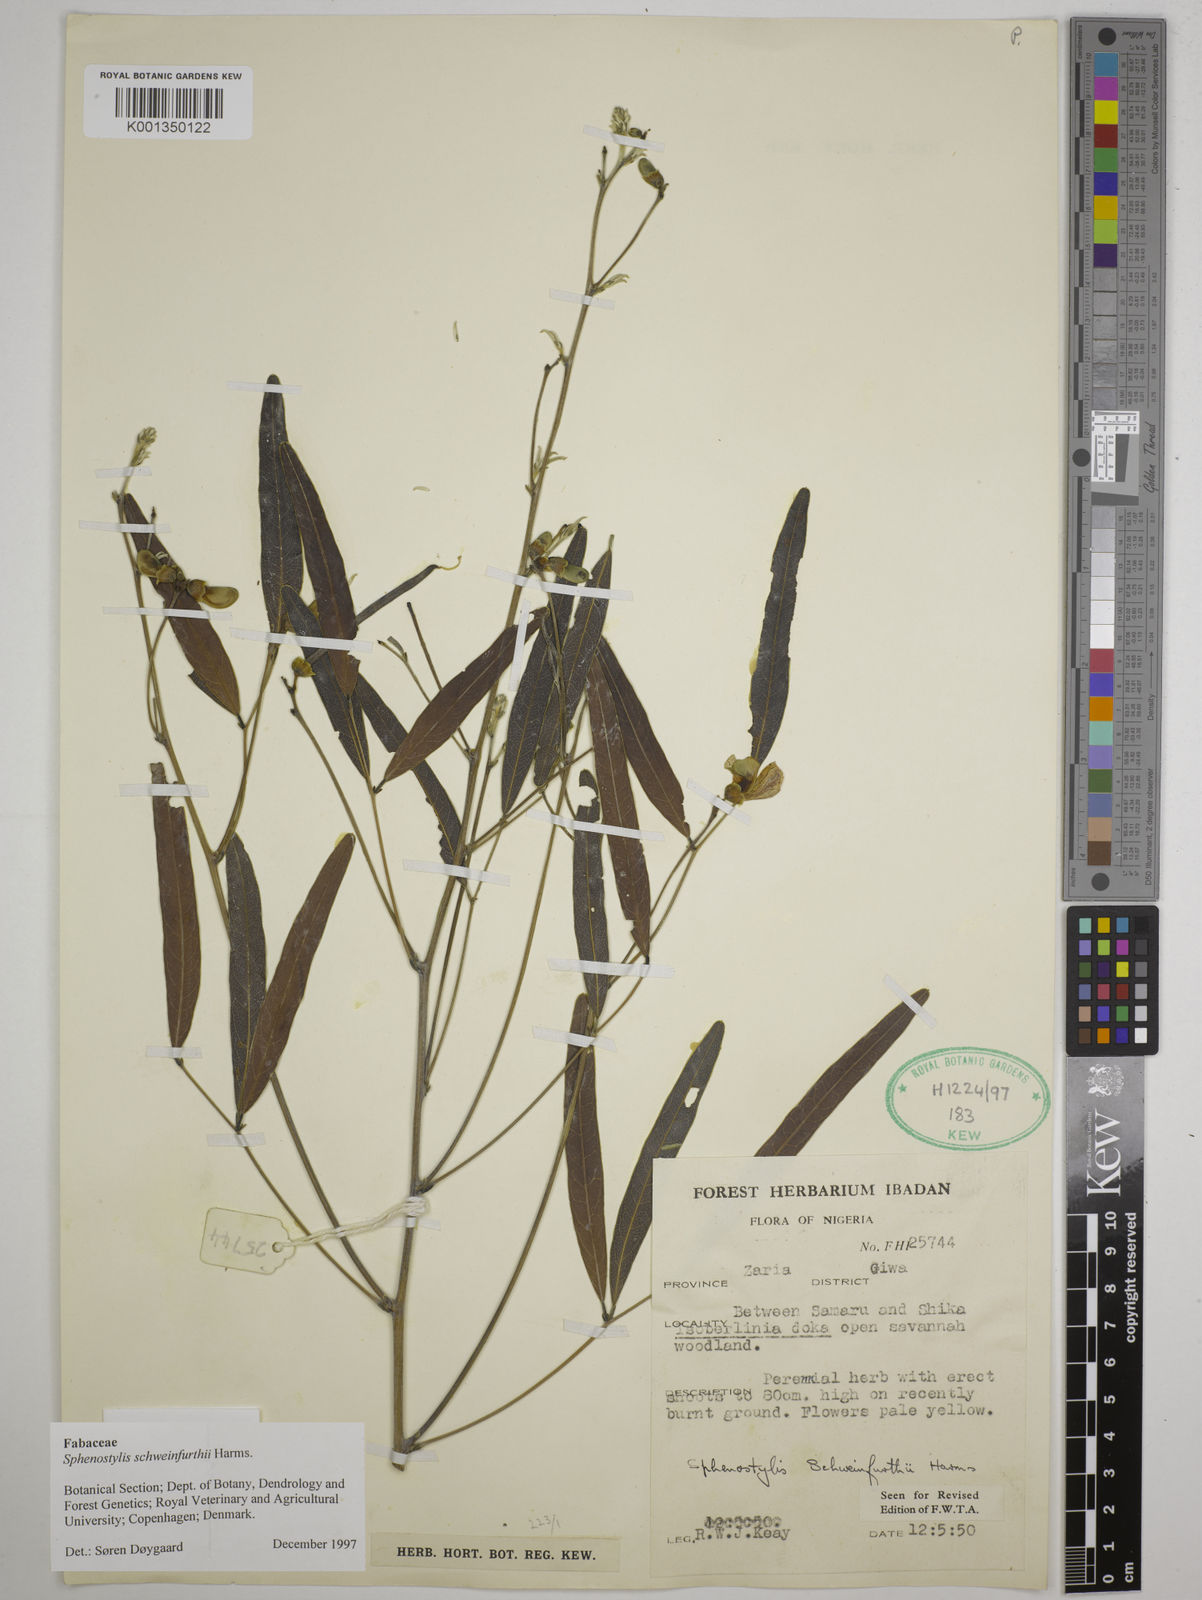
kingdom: Plantae
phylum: Tracheophyta
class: Magnoliopsida
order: Fabales
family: Fabaceae
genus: Sphenostylis
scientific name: Sphenostylis schweinfurthii
